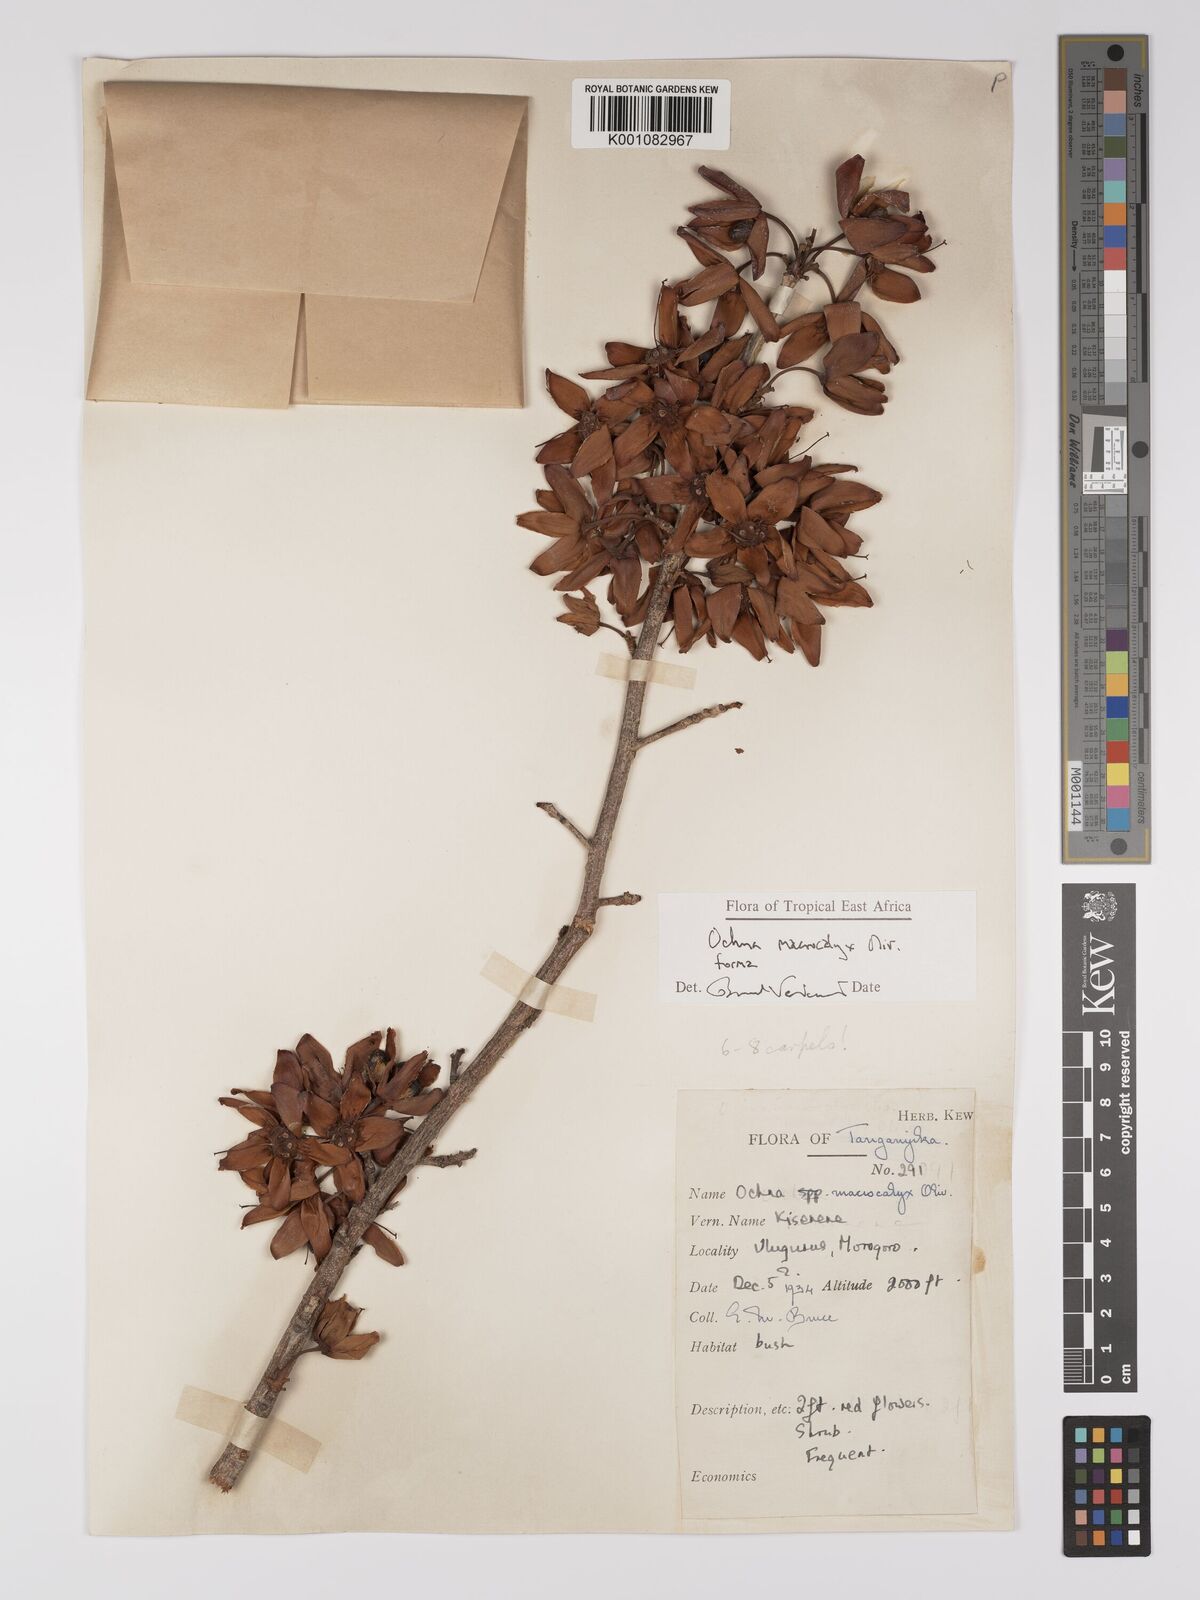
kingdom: Plantae
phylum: Tracheophyta
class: Magnoliopsida
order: Malpighiales
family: Ochnaceae
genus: Ochna
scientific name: Ochna macrocalyx
